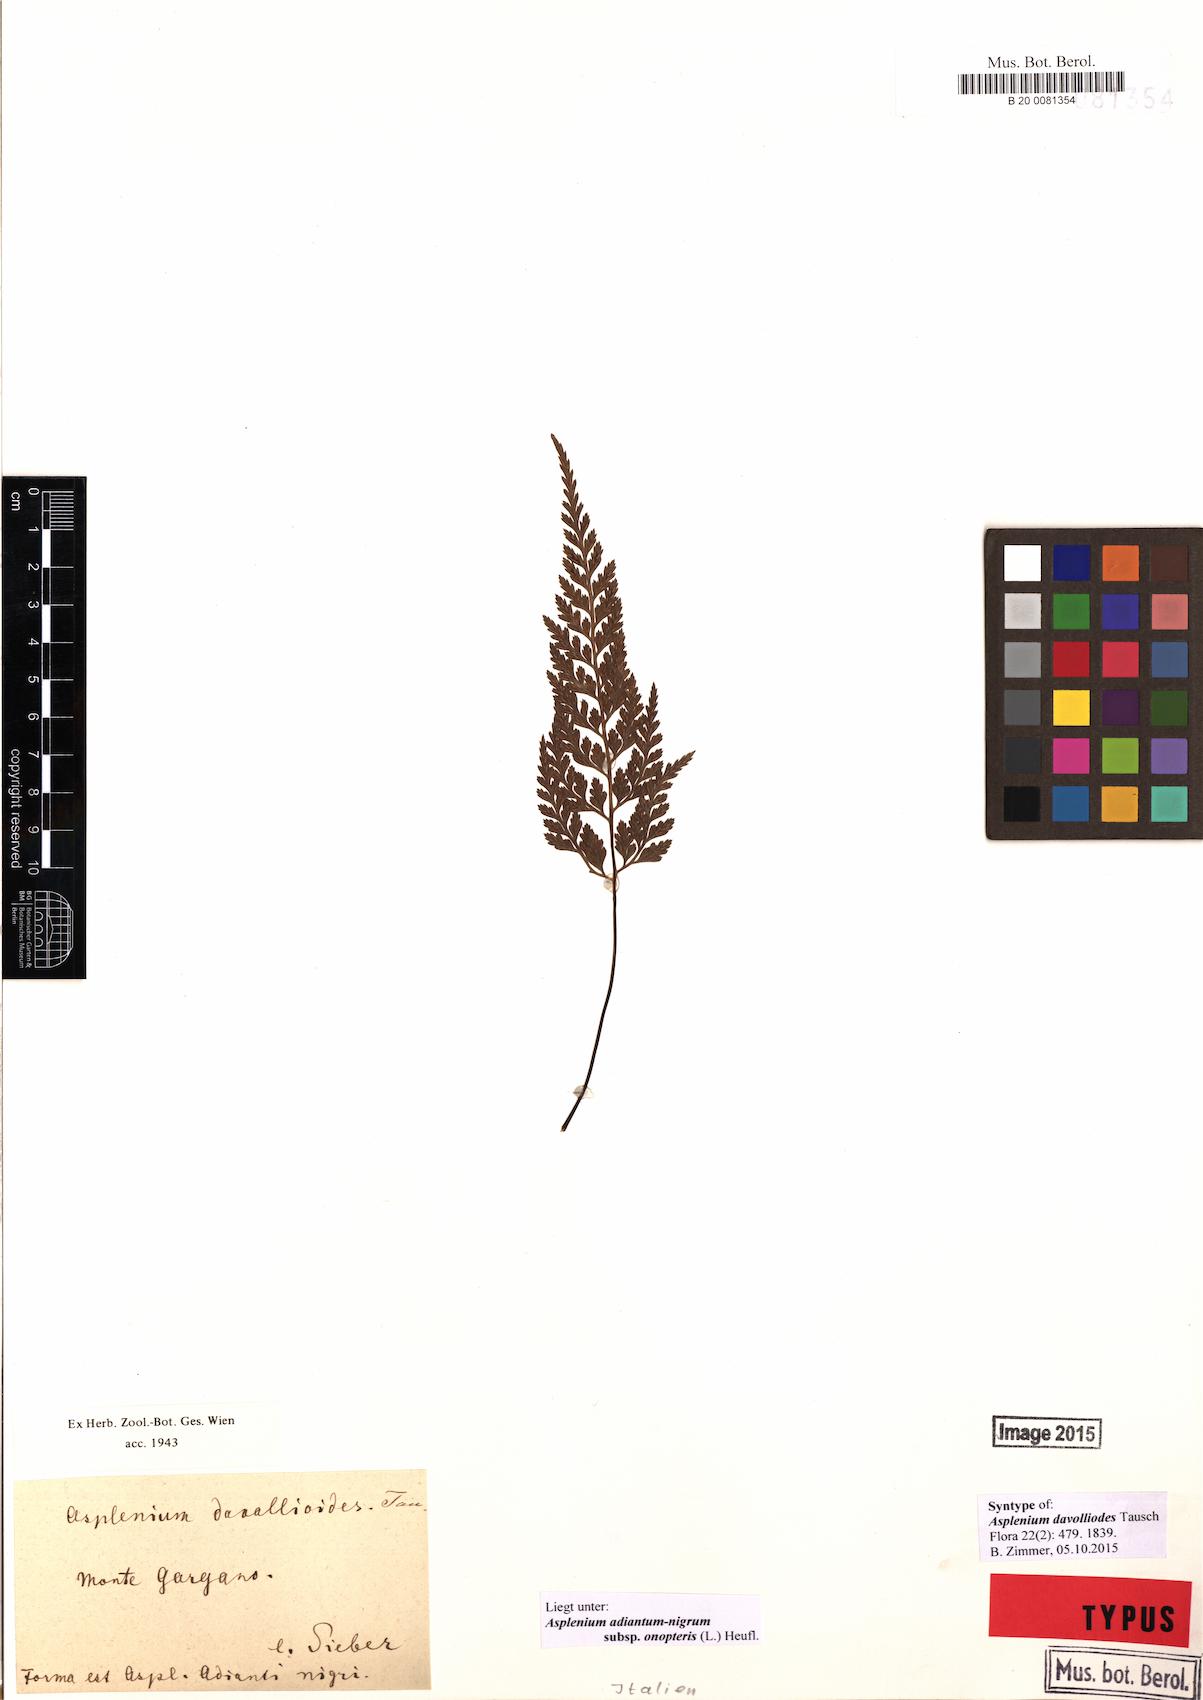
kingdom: Plantae
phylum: Tracheophyta
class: Polypodiopsida
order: Polypodiales
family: Aspleniaceae
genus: Asplenium
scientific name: Asplenium onopteris
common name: Irish spleenwort
